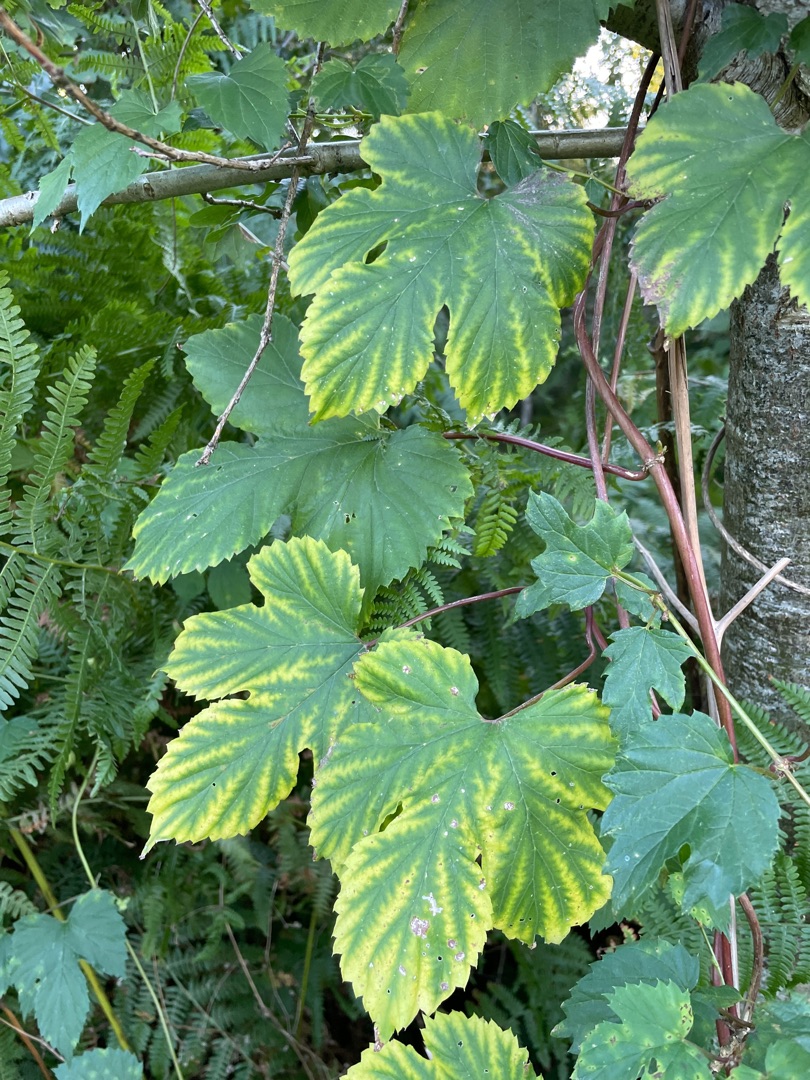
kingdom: Plantae
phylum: Tracheophyta
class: Magnoliopsida
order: Rosales
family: Cannabaceae
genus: Humulus
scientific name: Humulus lupulus
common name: Humle
